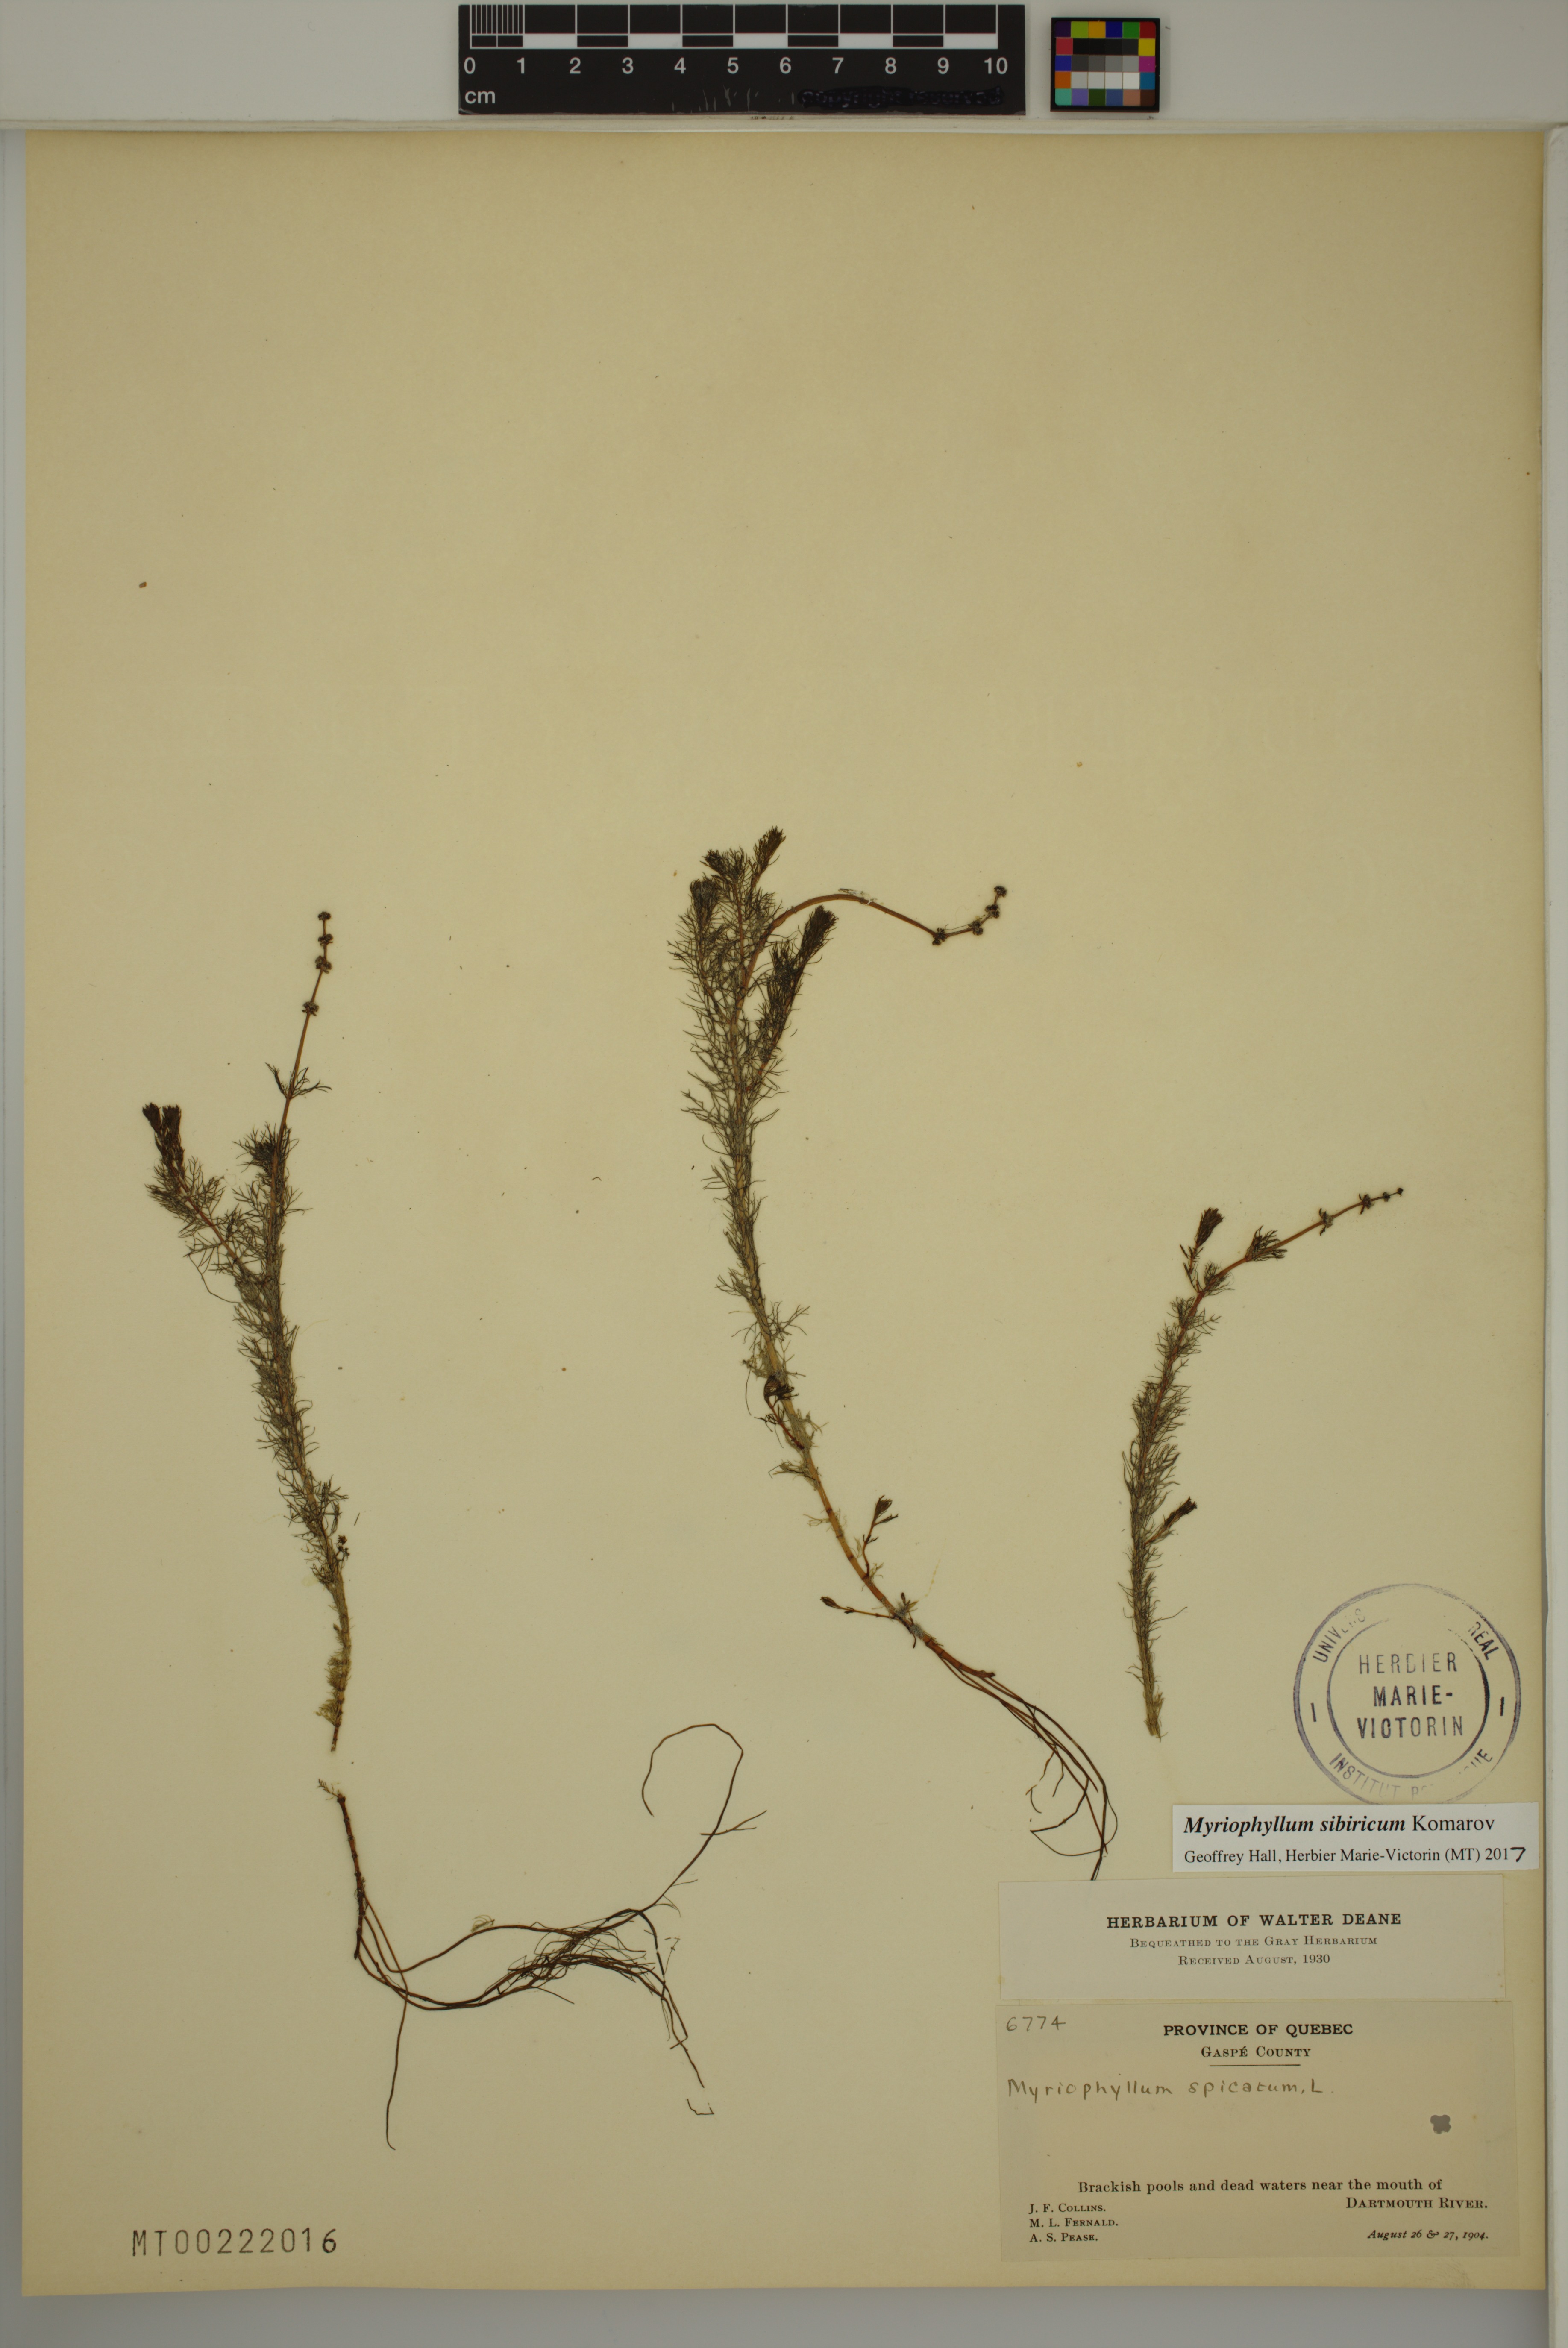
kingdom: Plantae
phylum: Tracheophyta
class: Magnoliopsida
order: Saxifragales
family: Haloragaceae
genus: Myriophyllum
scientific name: Myriophyllum sibiricum
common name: Siberian water-milfoil
